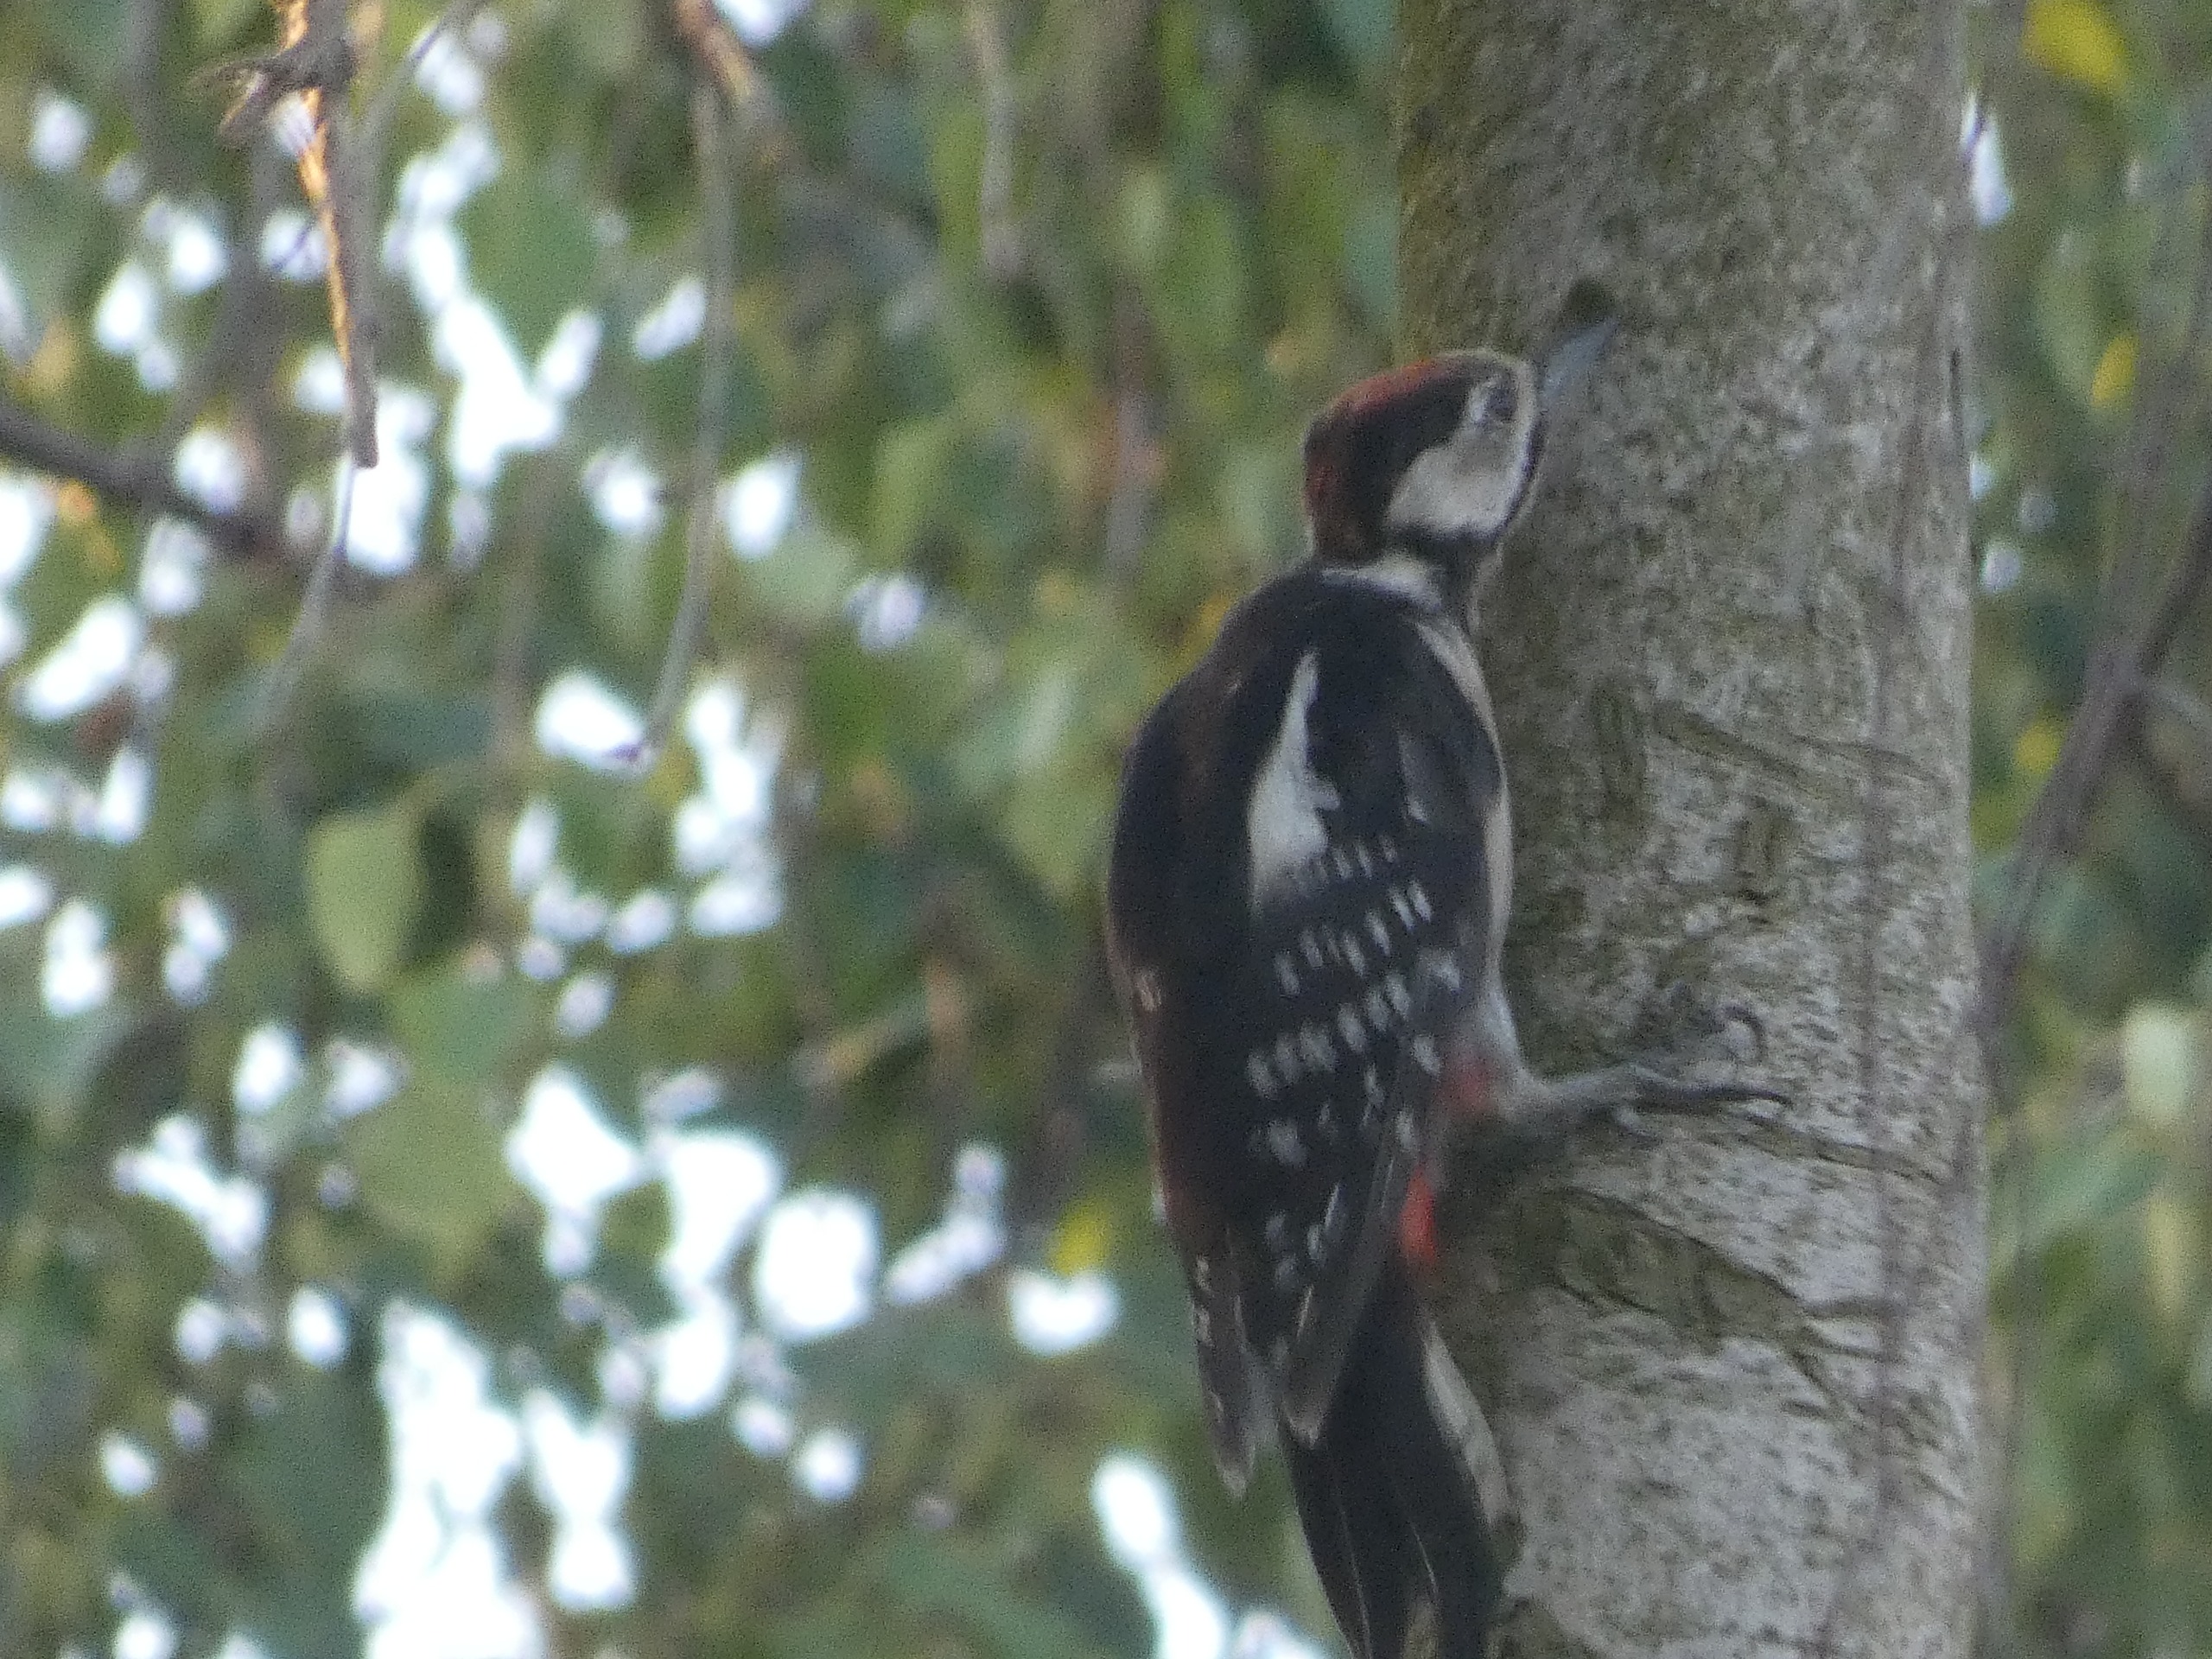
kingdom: Animalia
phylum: Chordata
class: Aves
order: Piciformes
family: Picidae
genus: Dendrocopos
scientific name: Dendrocopos major
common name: Stor flagspætte
